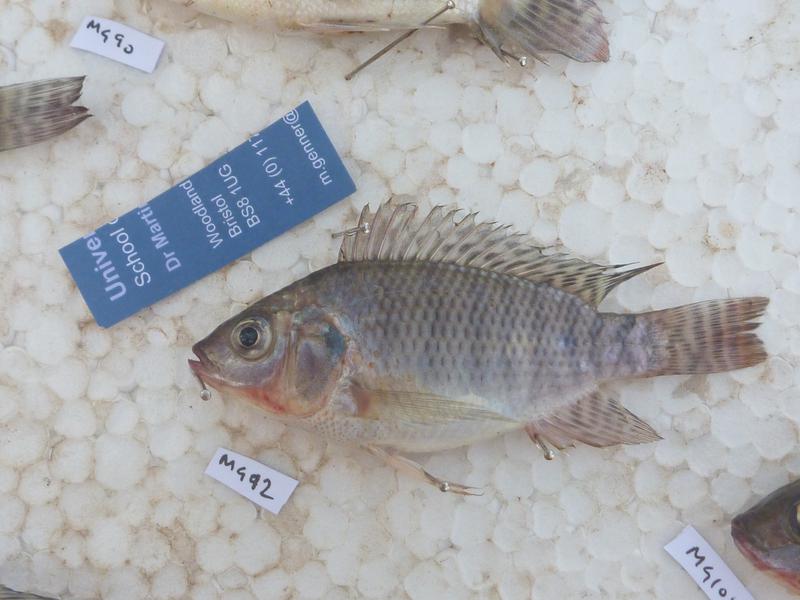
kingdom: Animalia
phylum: Chordata
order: Perciformes
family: Cichlidae
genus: Oreochromis
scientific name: Oreochromis niloticus
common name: Nile tilapia
